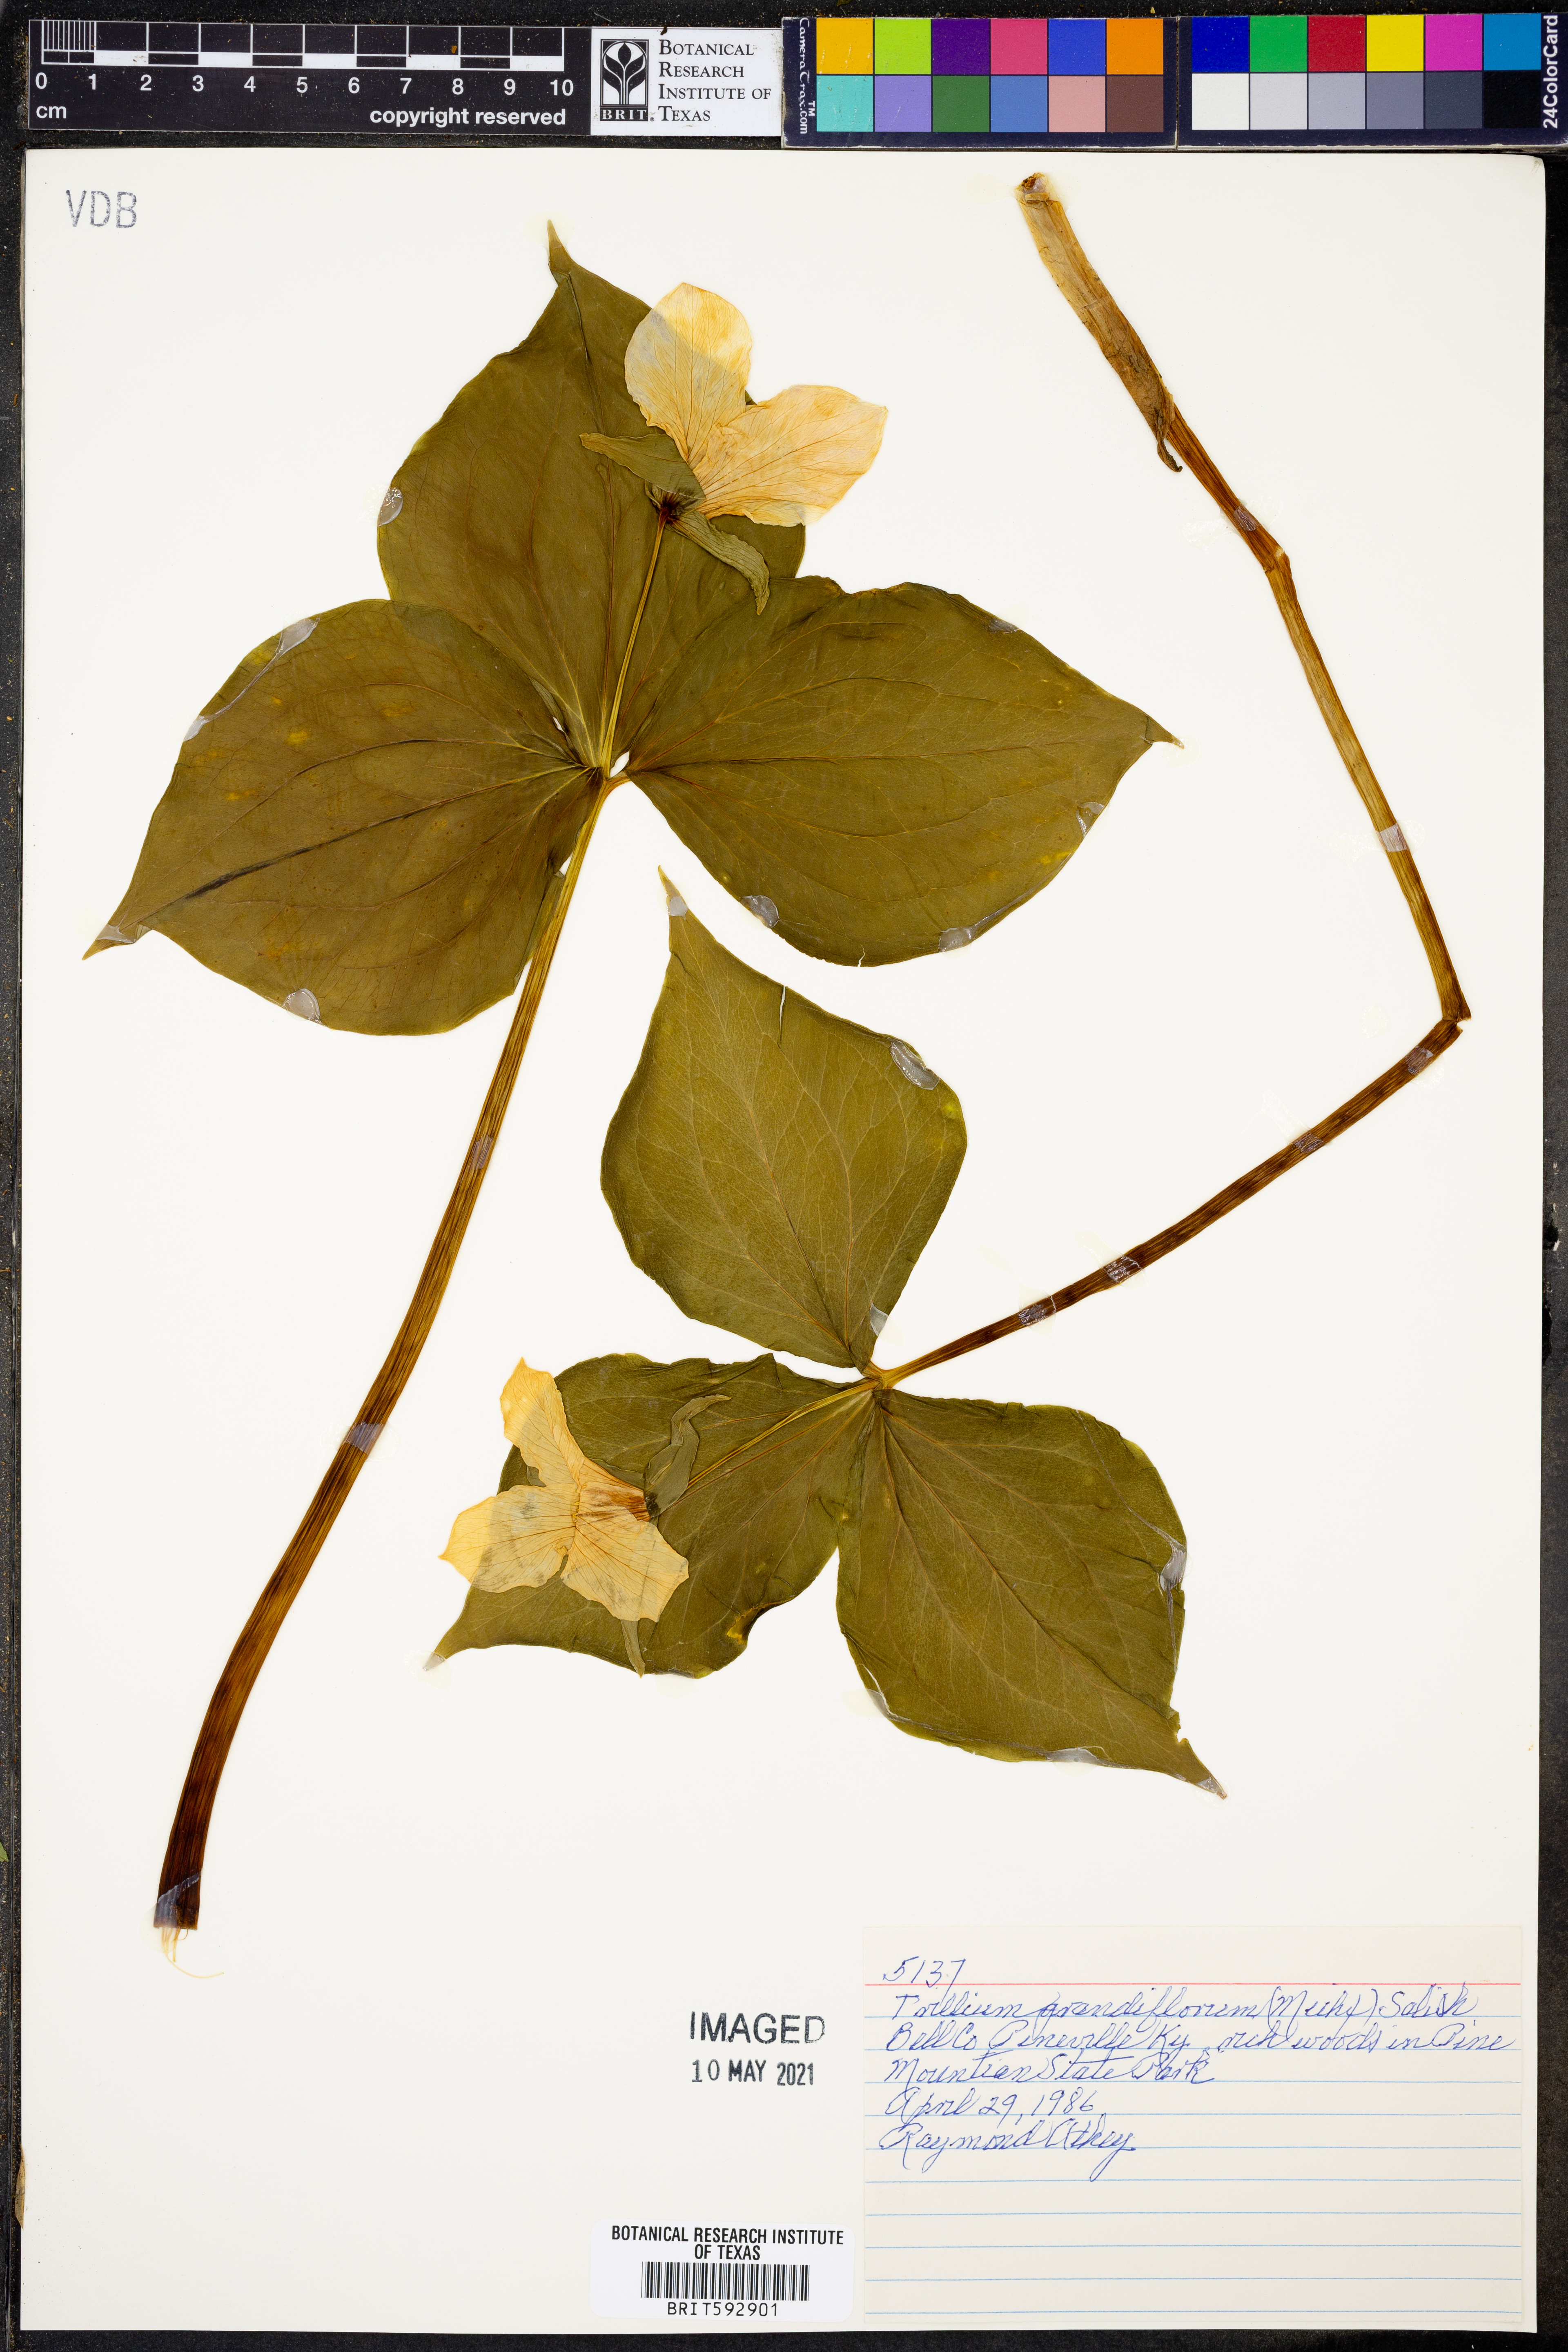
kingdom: Plantae
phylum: Tracheophyta
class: Liliopsida
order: Liliales
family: Melanthiaceae
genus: Trillium
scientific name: Trillium grandiflorum
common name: Great white trillium
